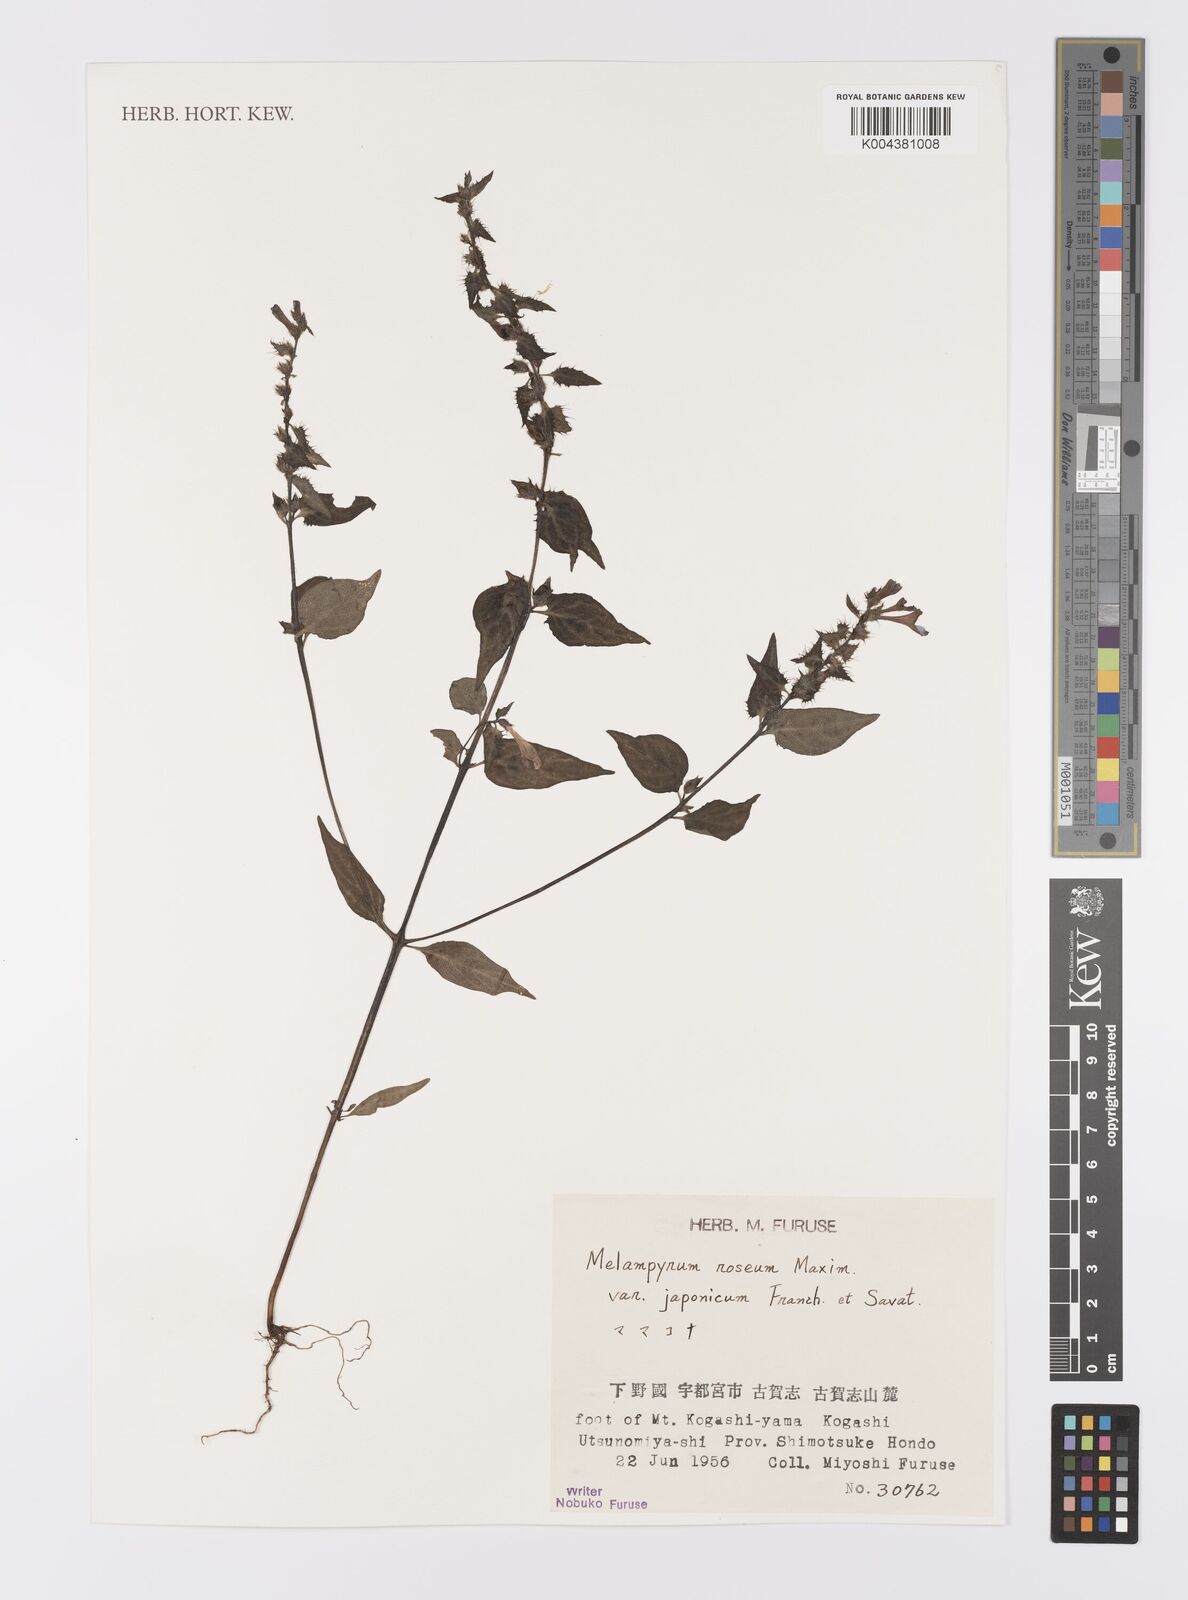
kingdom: Plantae
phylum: Tracheophyta
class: Magnoliopsida
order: Lamiales
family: Orobanchaceae
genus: Melampyrum
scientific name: Melampyrum roseum
